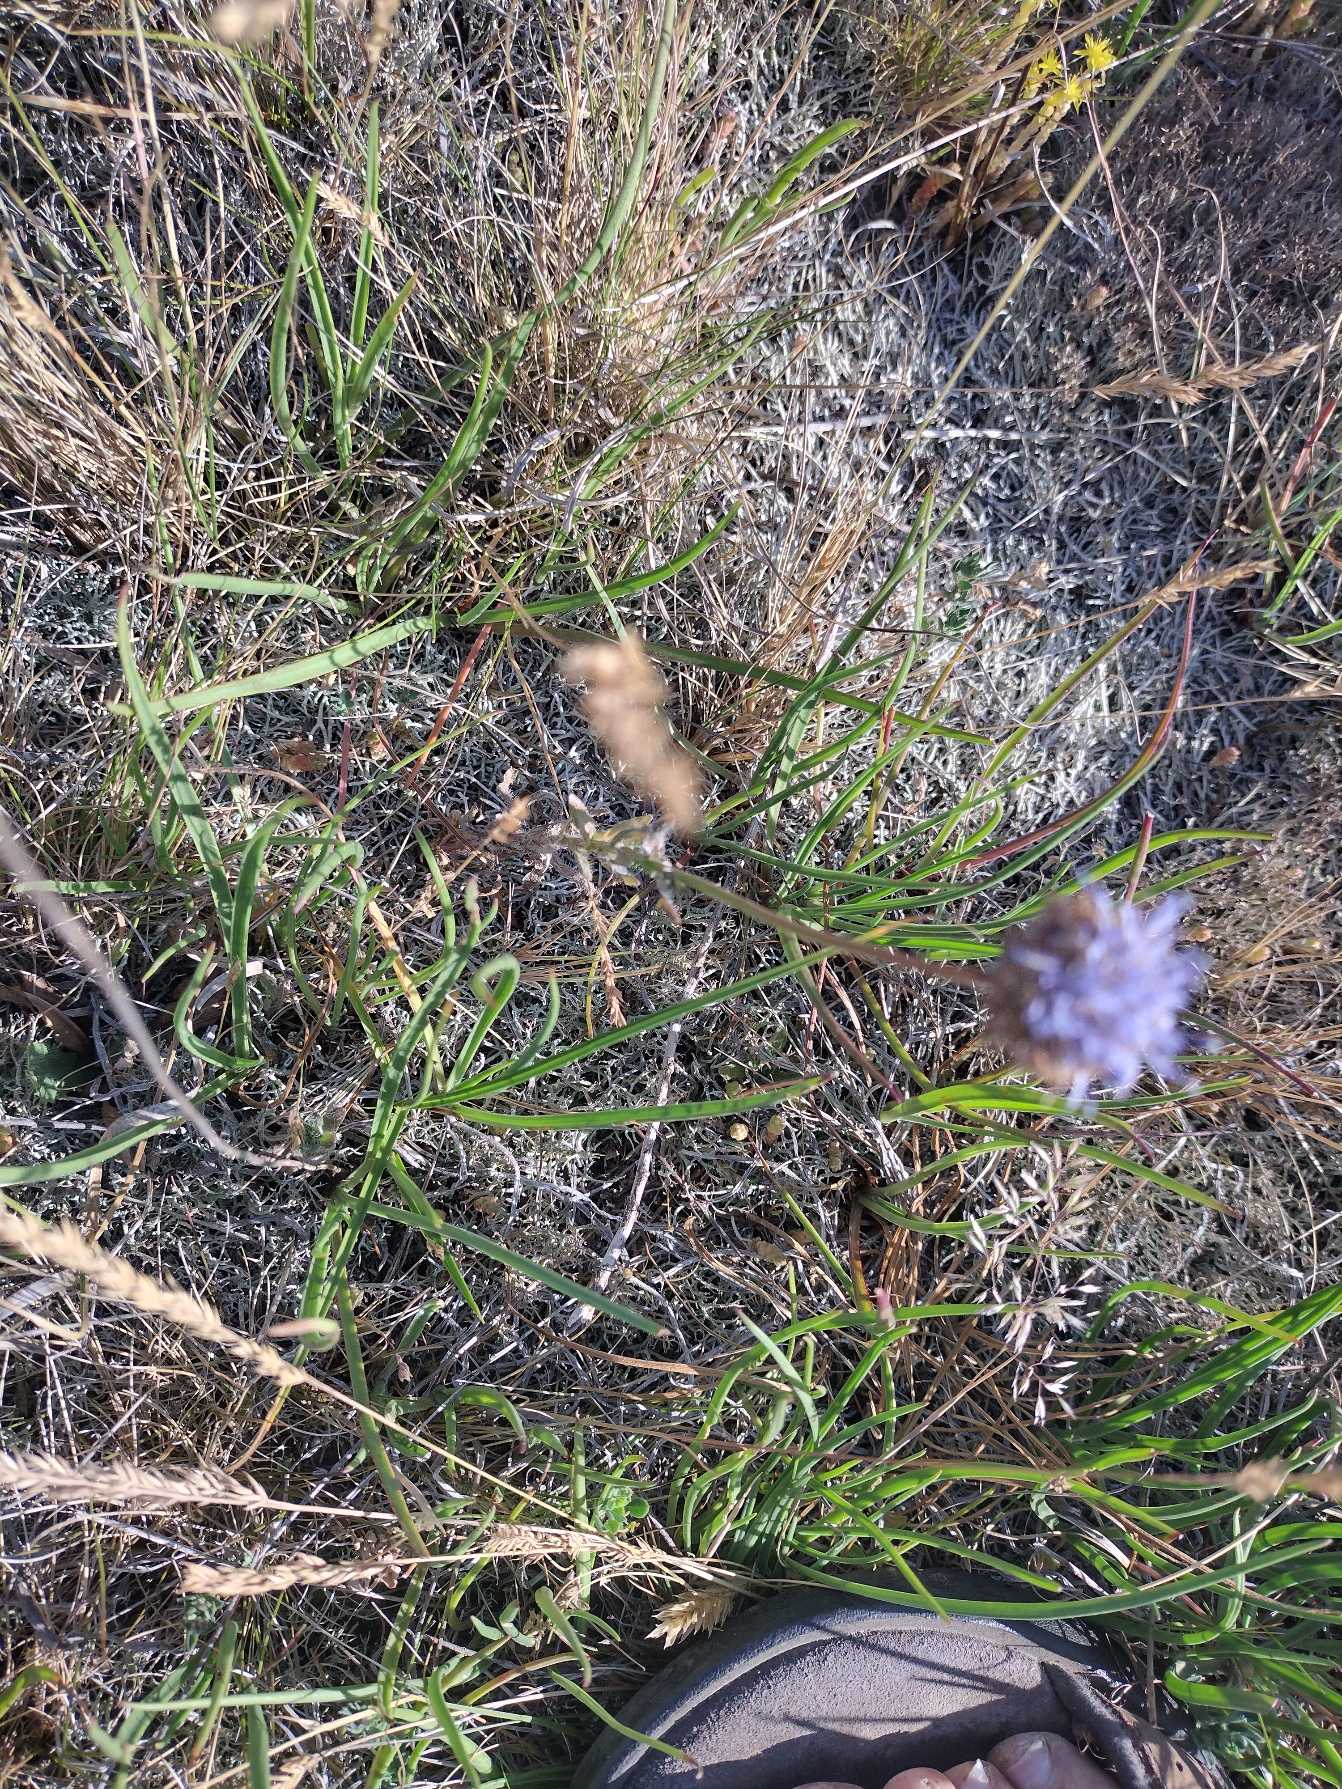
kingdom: Plantae
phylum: Tracheophyta
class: Magnoliopsida
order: Asterales
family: Campanulaceae
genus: Jasione
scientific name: Jasione montana
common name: Blåmunke
